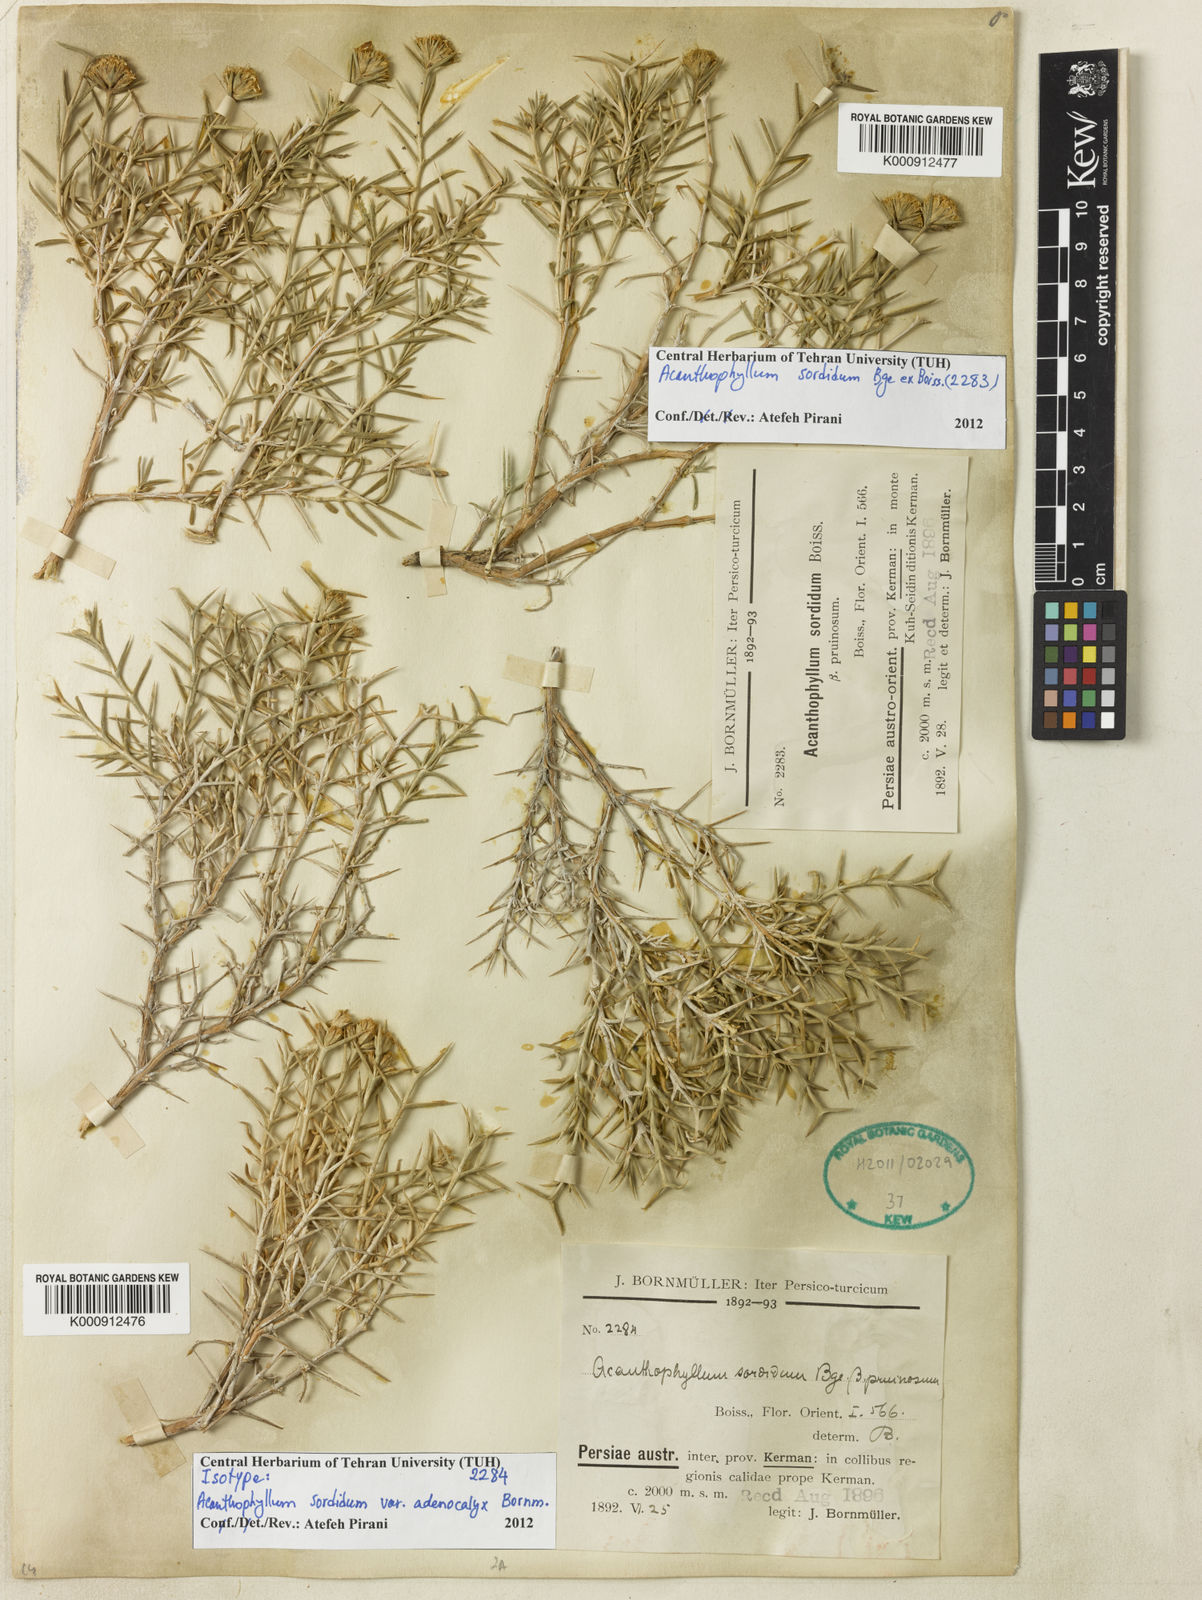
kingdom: Plantae
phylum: Tracheophyta
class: Magnoliopsida
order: Caryophyllales
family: Caryophyllaceae
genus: Acanthophyllum
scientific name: Acanthophyllum sordidum
